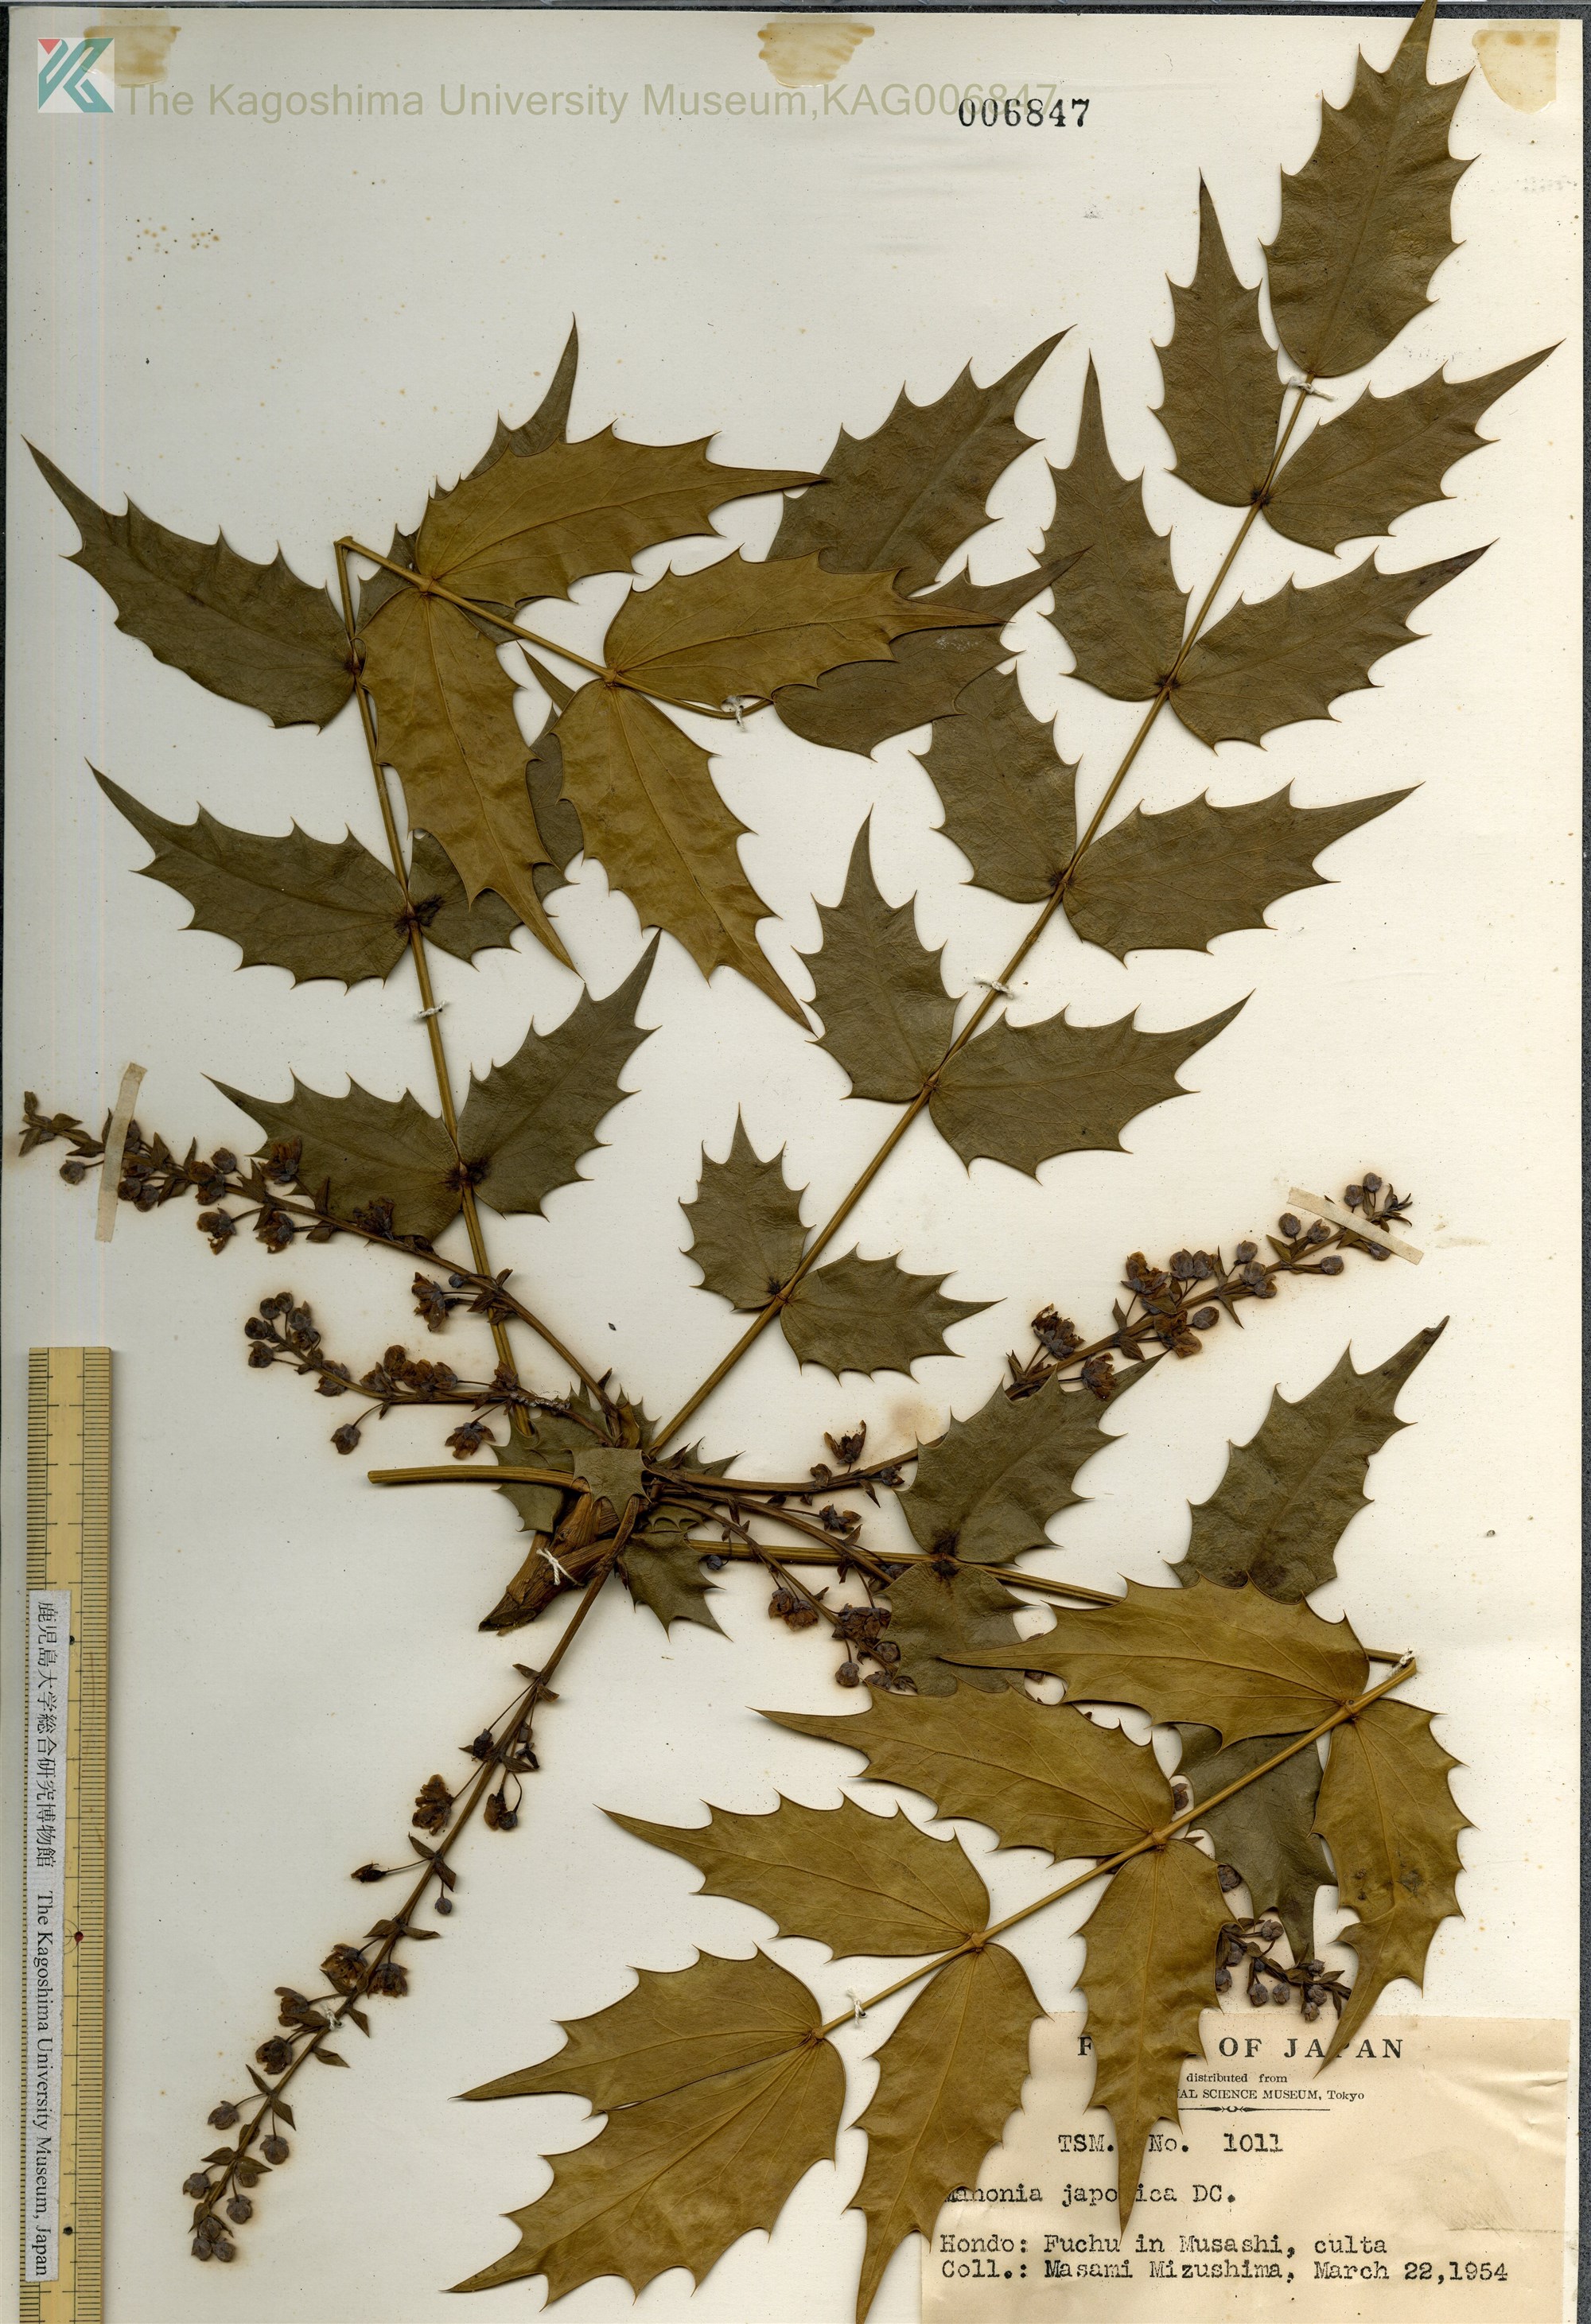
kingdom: Plantae
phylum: Tracheophyta
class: Magnoliopsida
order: Ranunculales
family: Berberidaceae
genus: Mahonia
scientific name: Mahonia japonica
